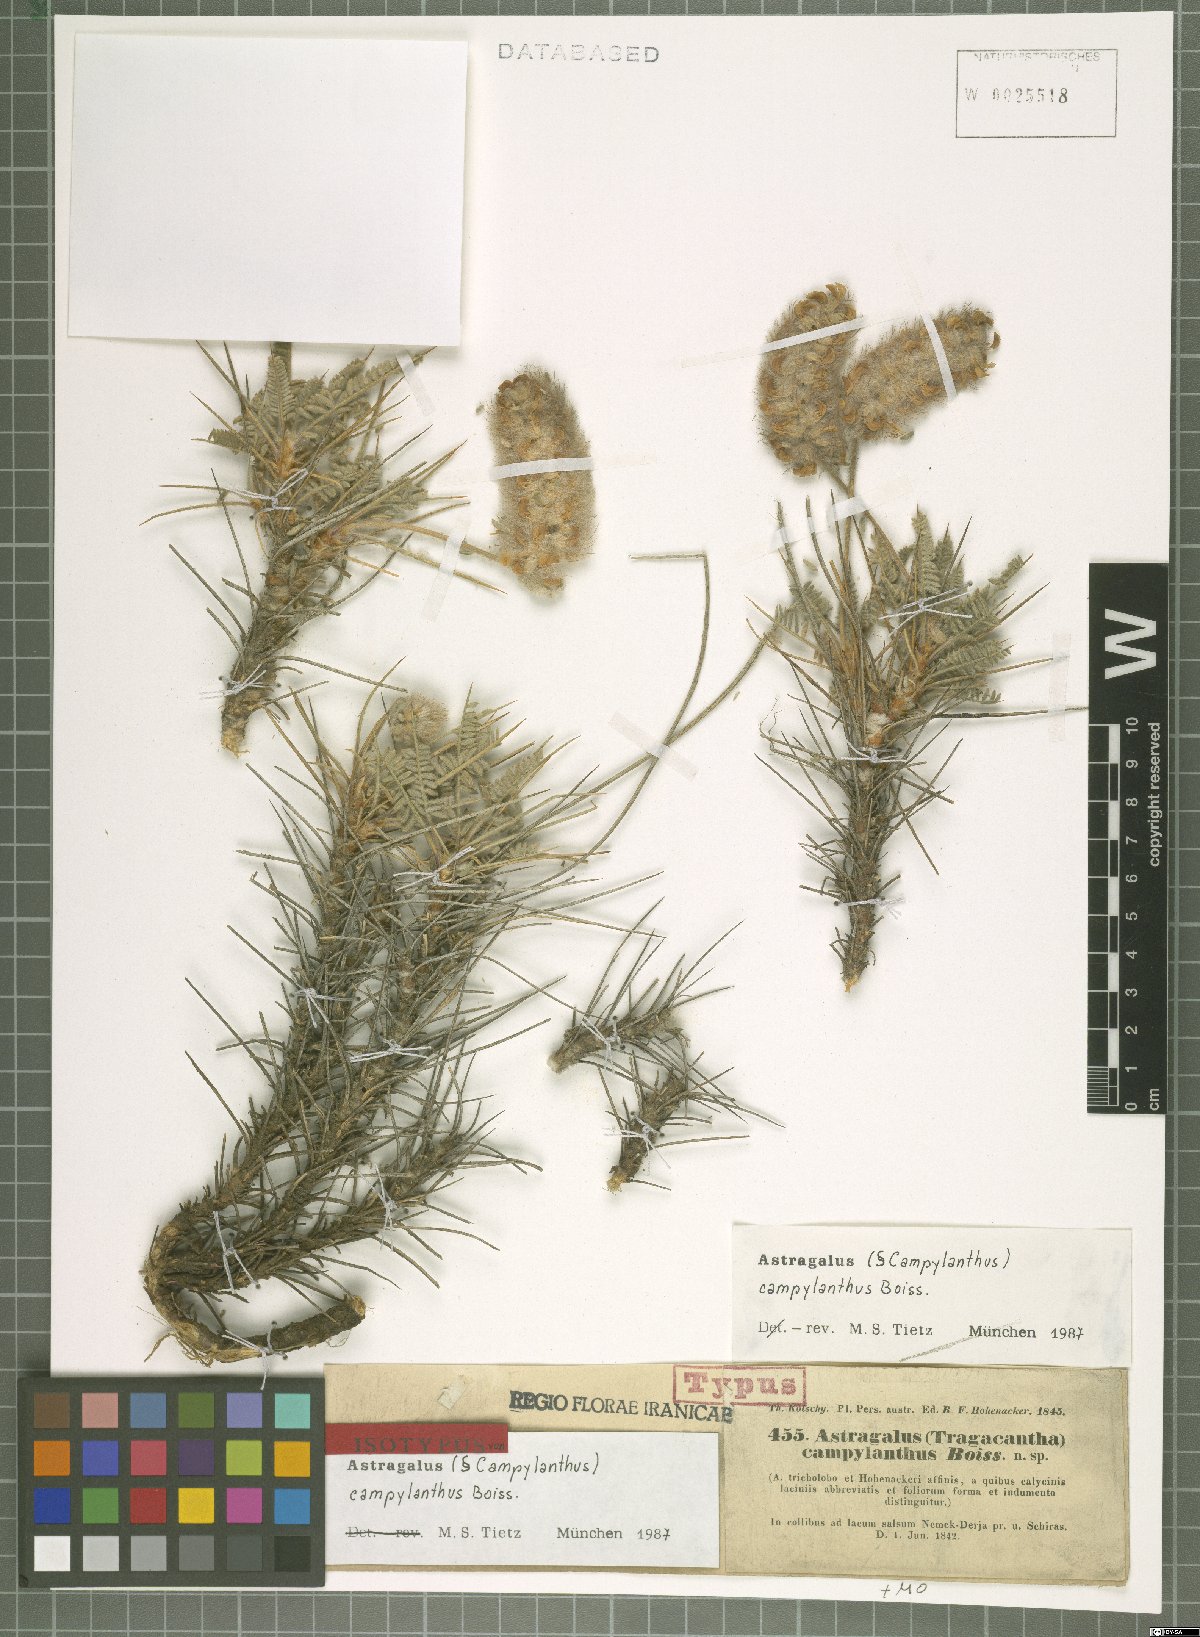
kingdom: Plantae
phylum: Tracheophyta
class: Magnoliopsida
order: Fabales
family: Fabaceae
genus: Astragalus
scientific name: Astragalus campylanthus
